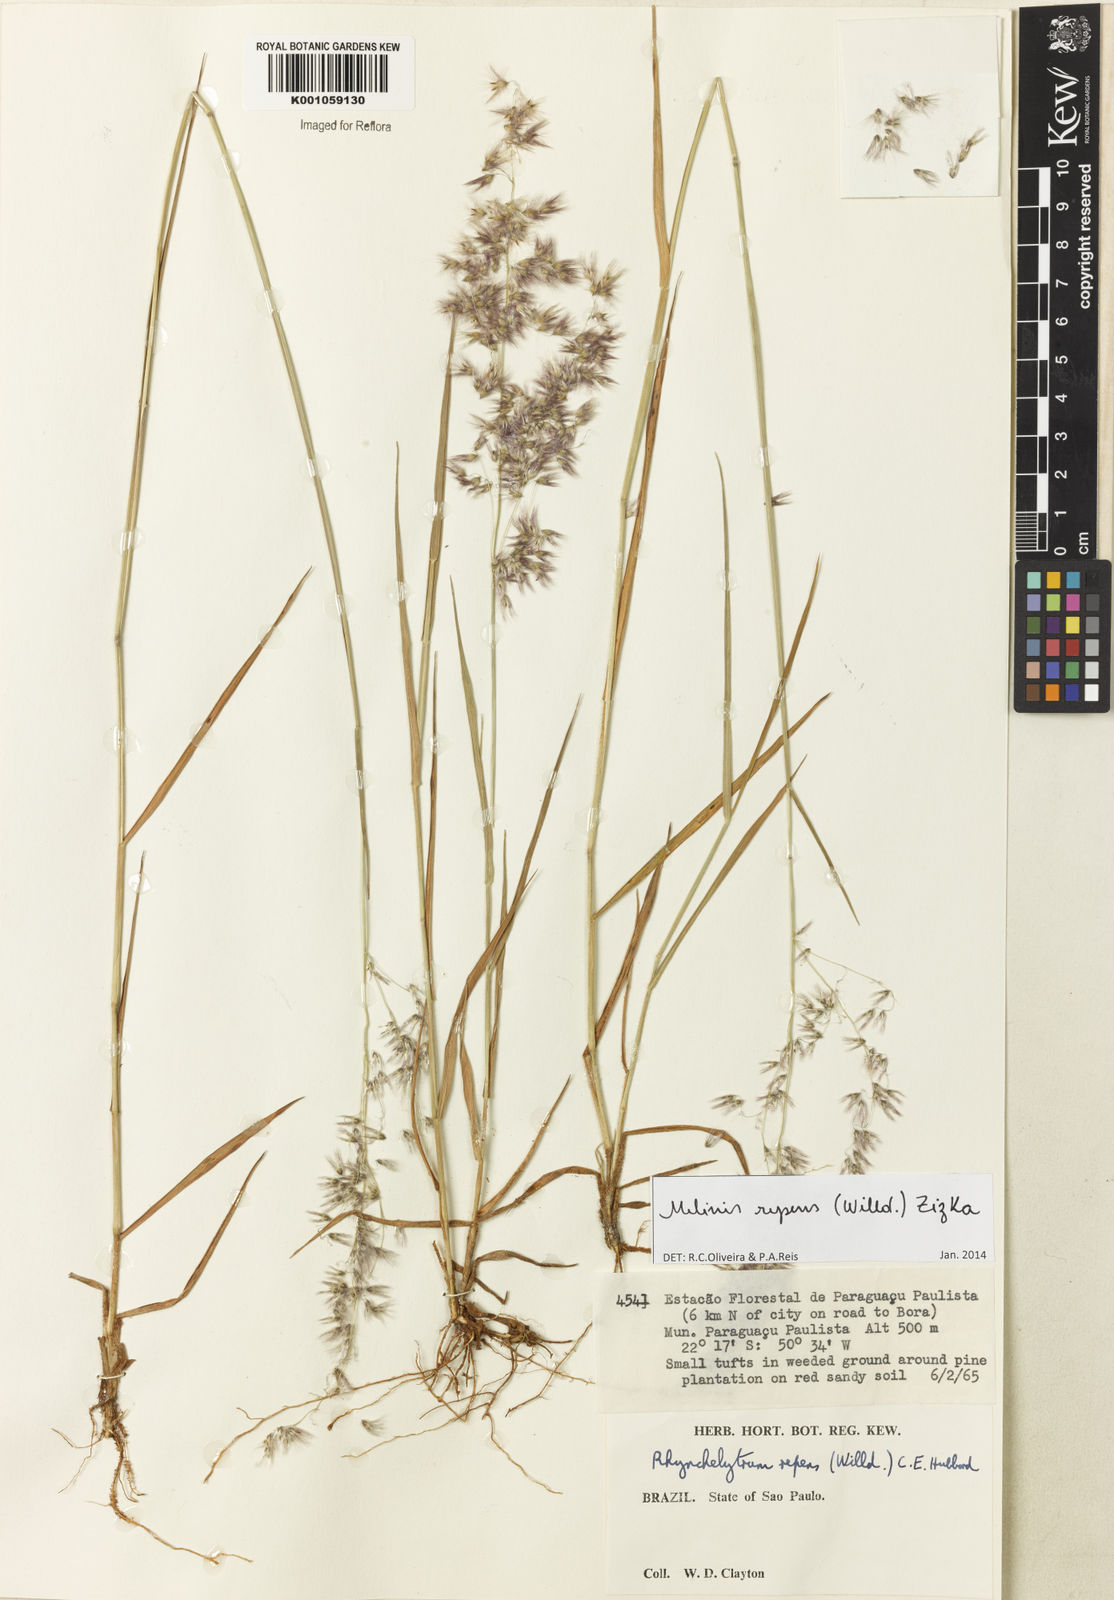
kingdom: Plantae
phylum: Tracheophyta
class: Liliopsida
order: Poales
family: Poaceae
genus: Melinis
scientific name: Melinis repens
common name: Rose natal grass
